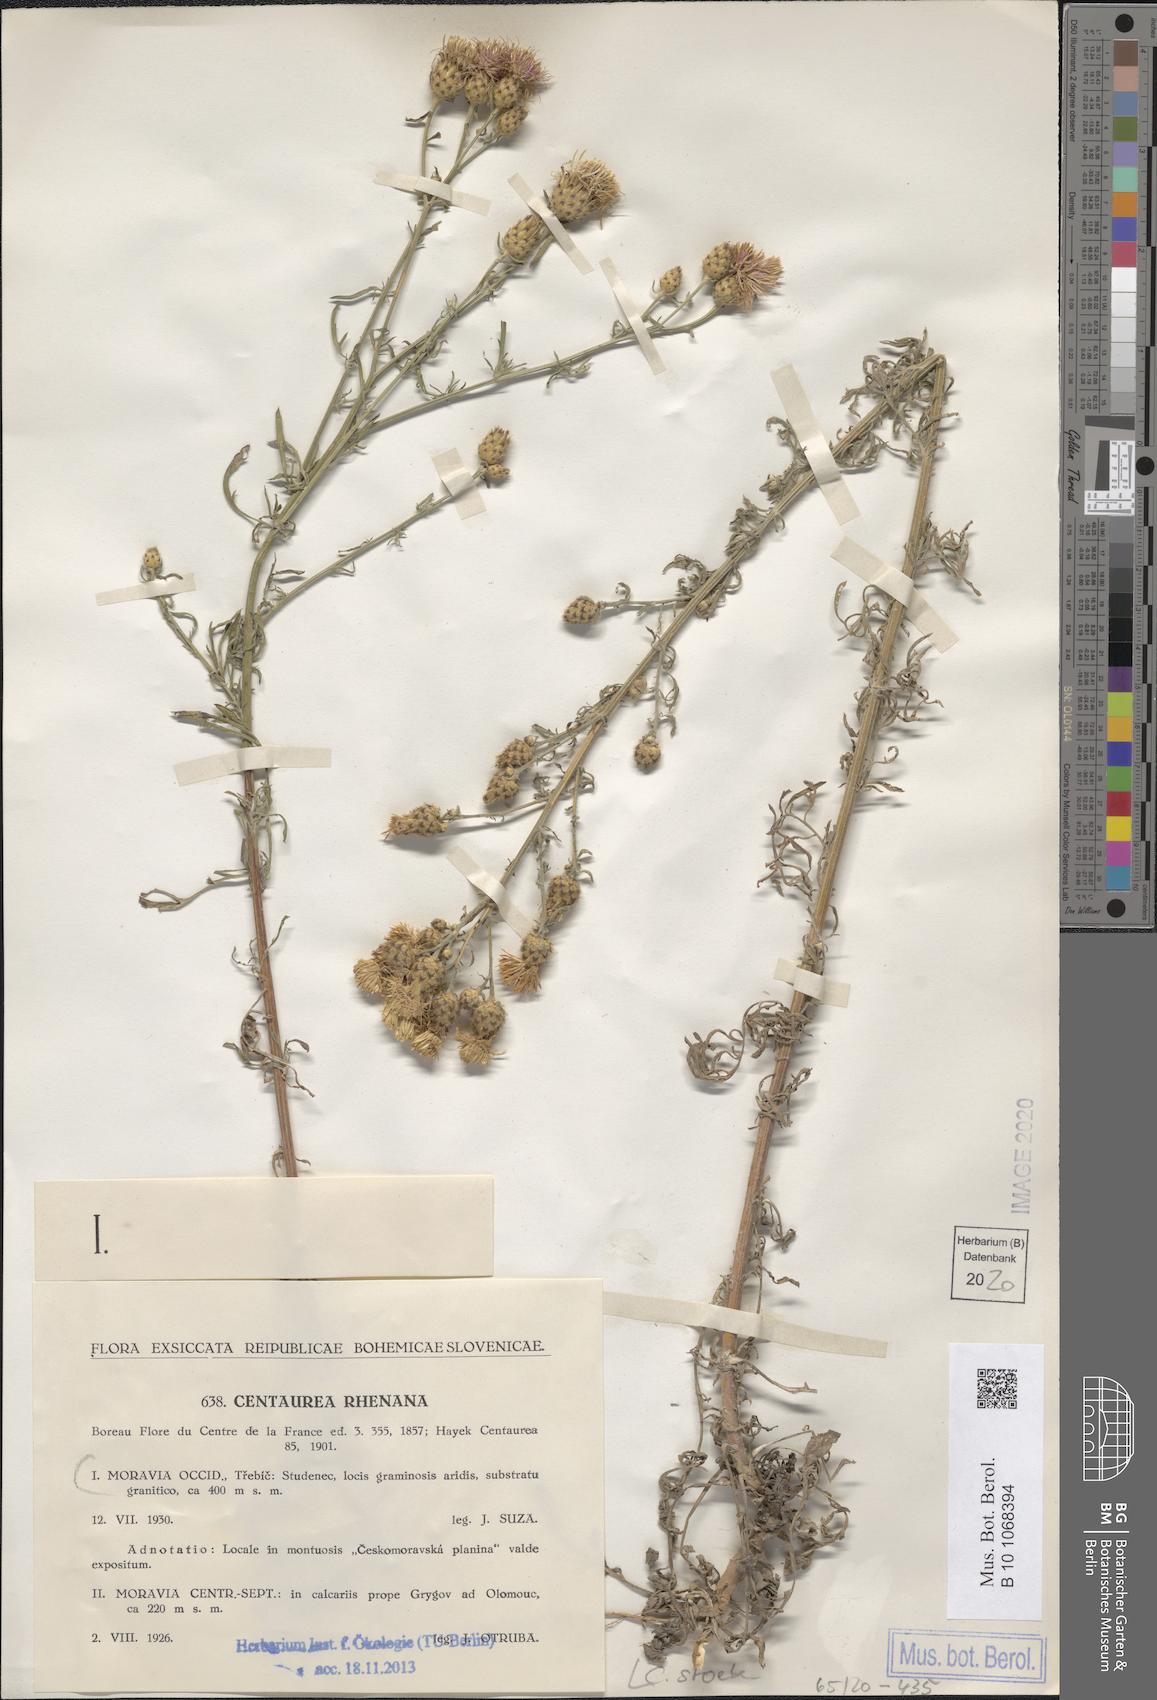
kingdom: Plantae
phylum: Tracheophyta
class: Magnoliopsida
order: Asterales
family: Asteraceae
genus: Centaurea
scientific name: Centaurea stoebe
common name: Spotted knapweed
